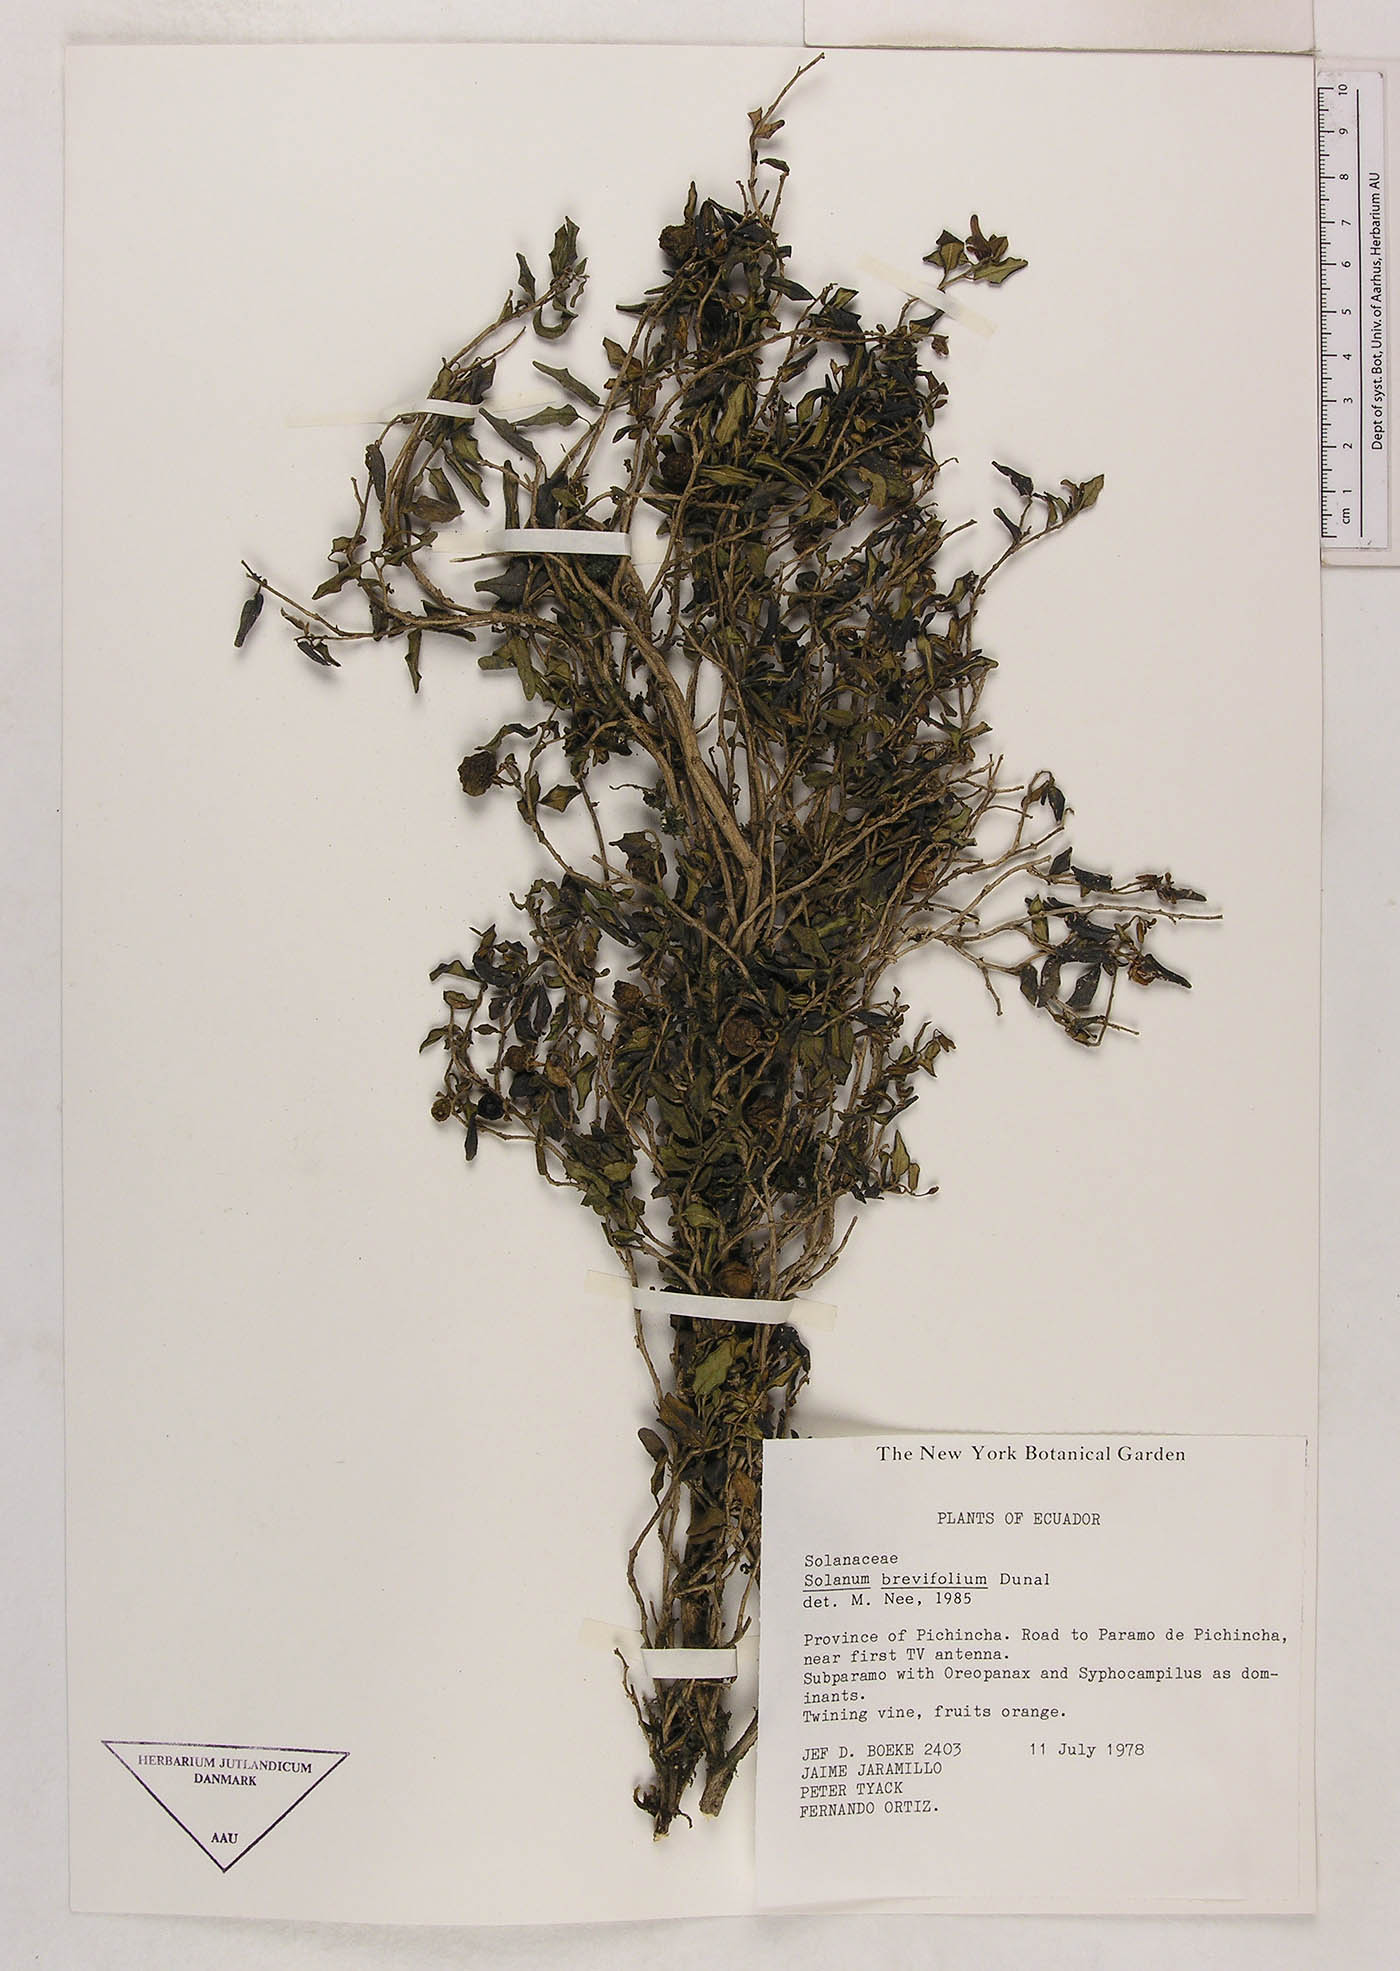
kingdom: Plantae
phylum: Tracheophyta
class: Magnoliopsida
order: Solanales
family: Solanaceae
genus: Solanum
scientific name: Solanum brevifolium
